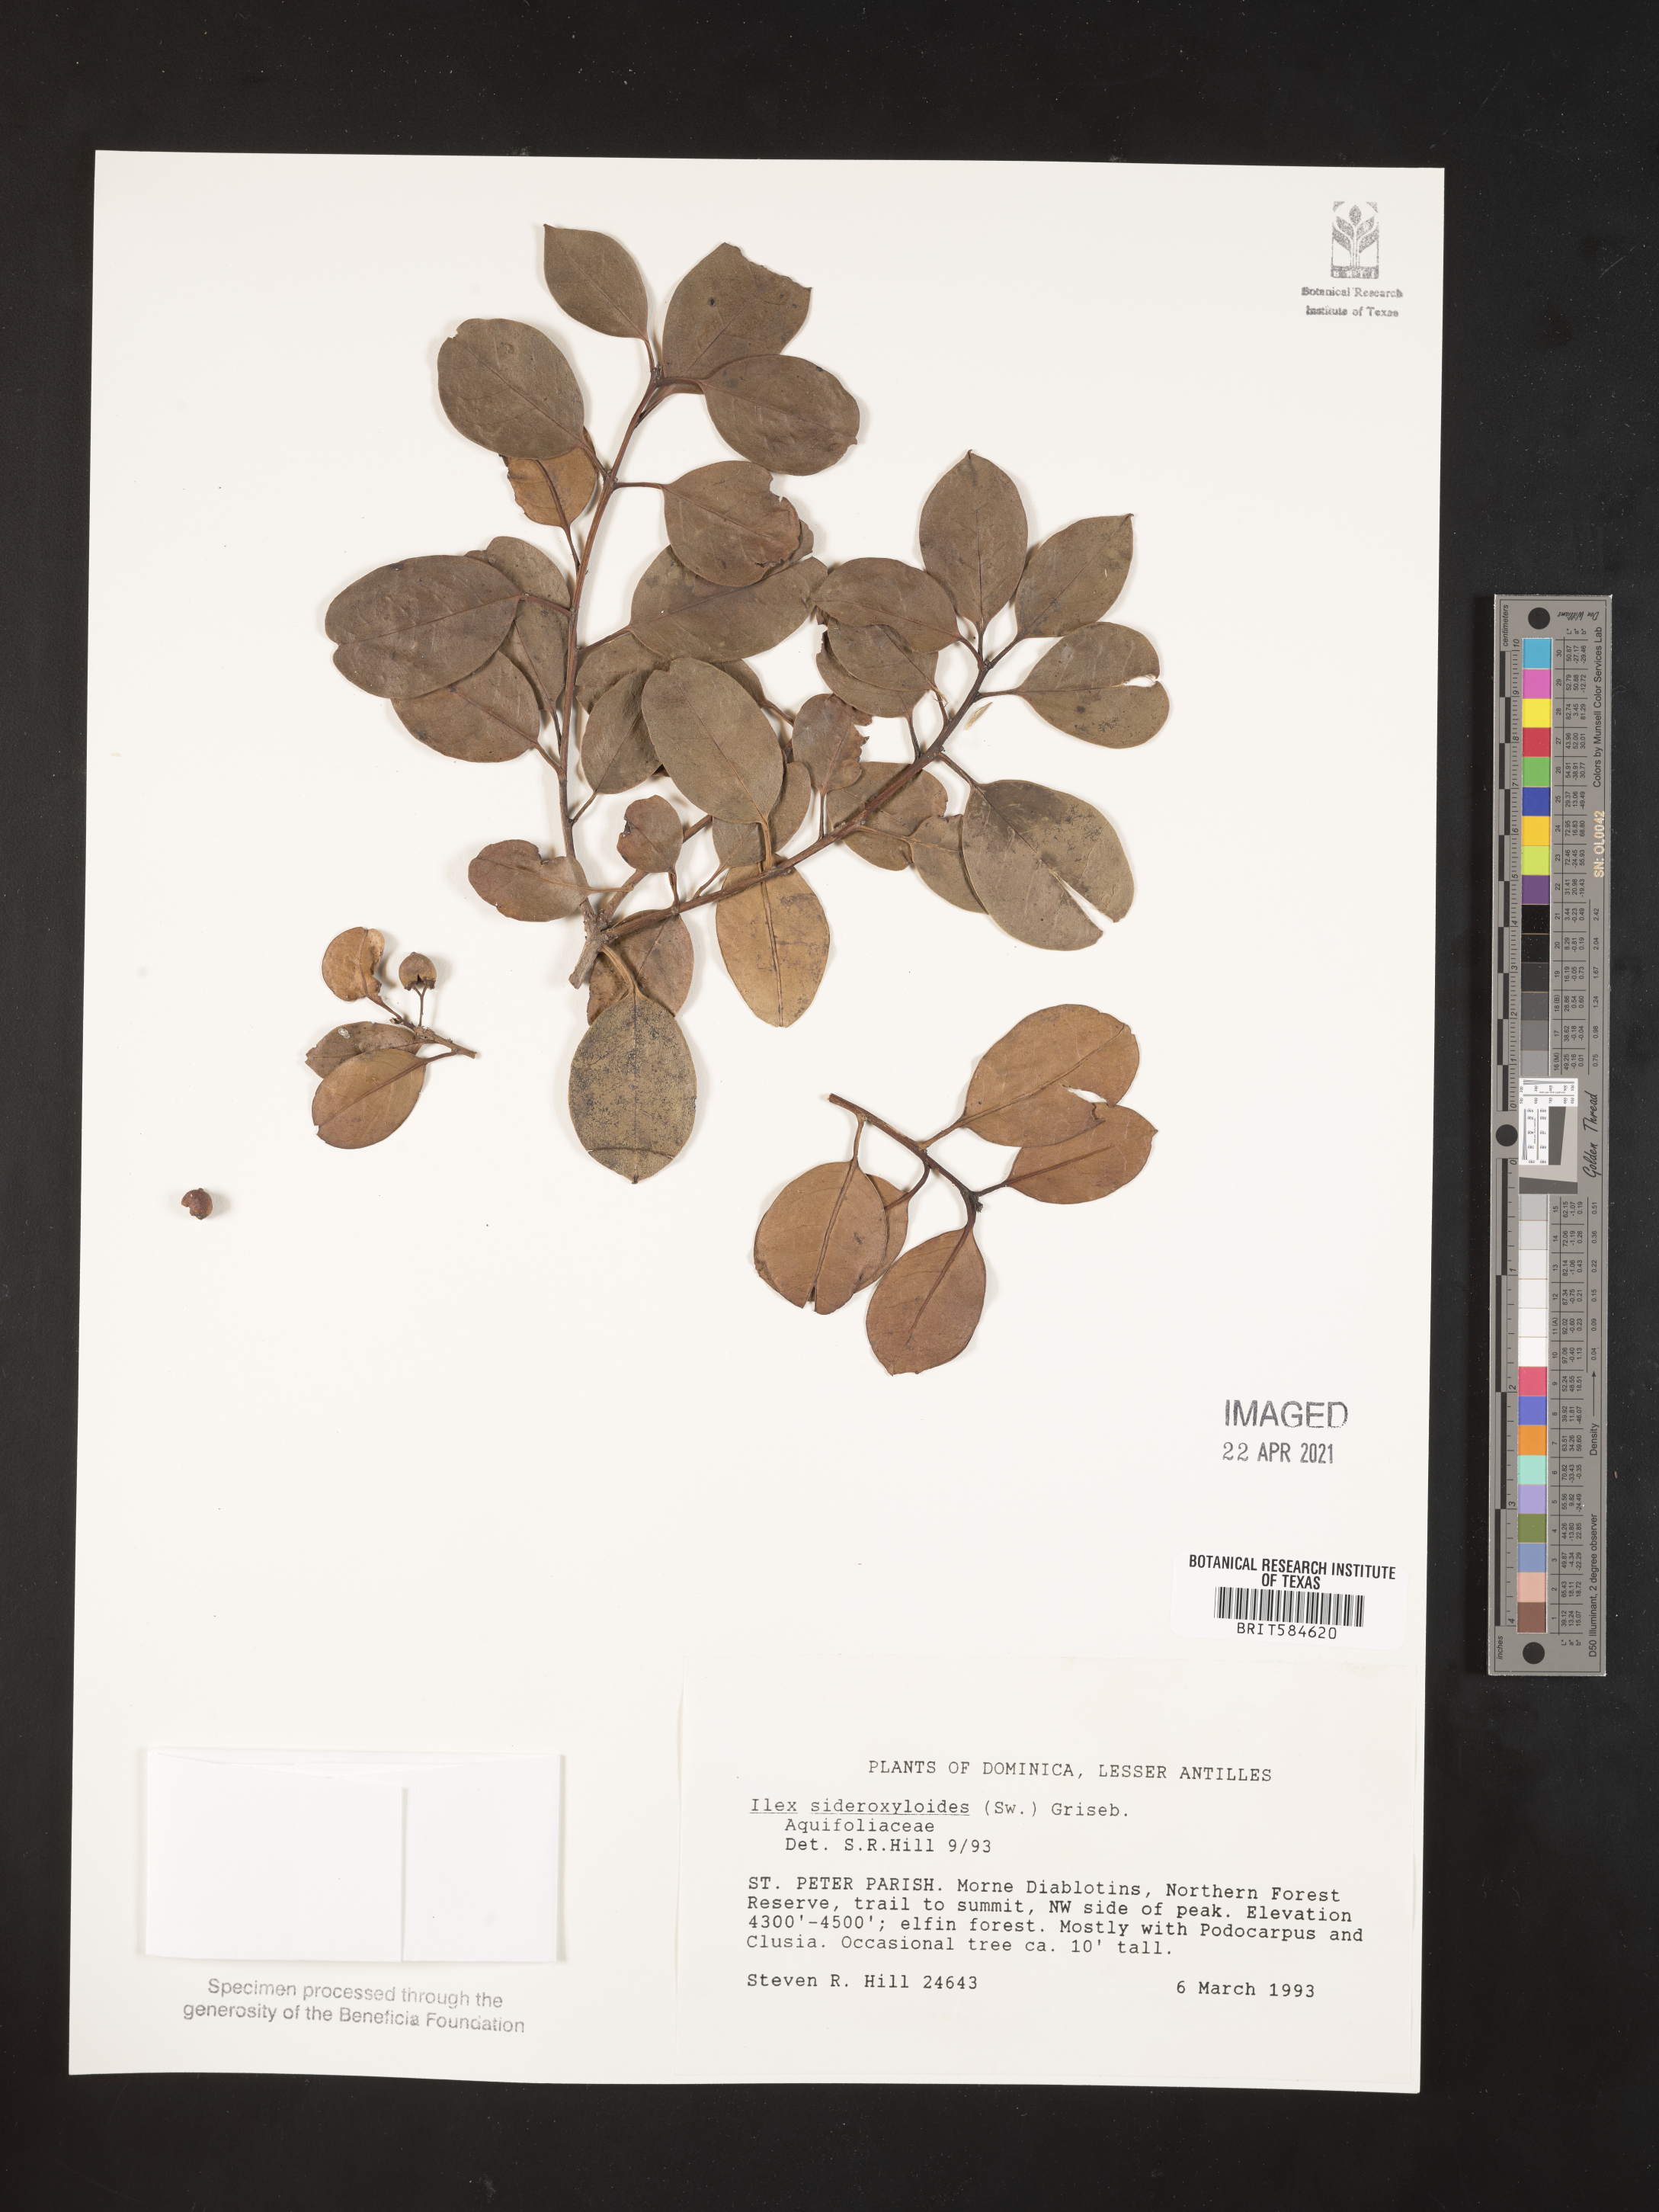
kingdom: Plantae
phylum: Tracheophyta
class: Magnoliopsida
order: Aquifoliales
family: Aquifoliaceae
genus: Ilex
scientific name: Ilex sideroxyloides
